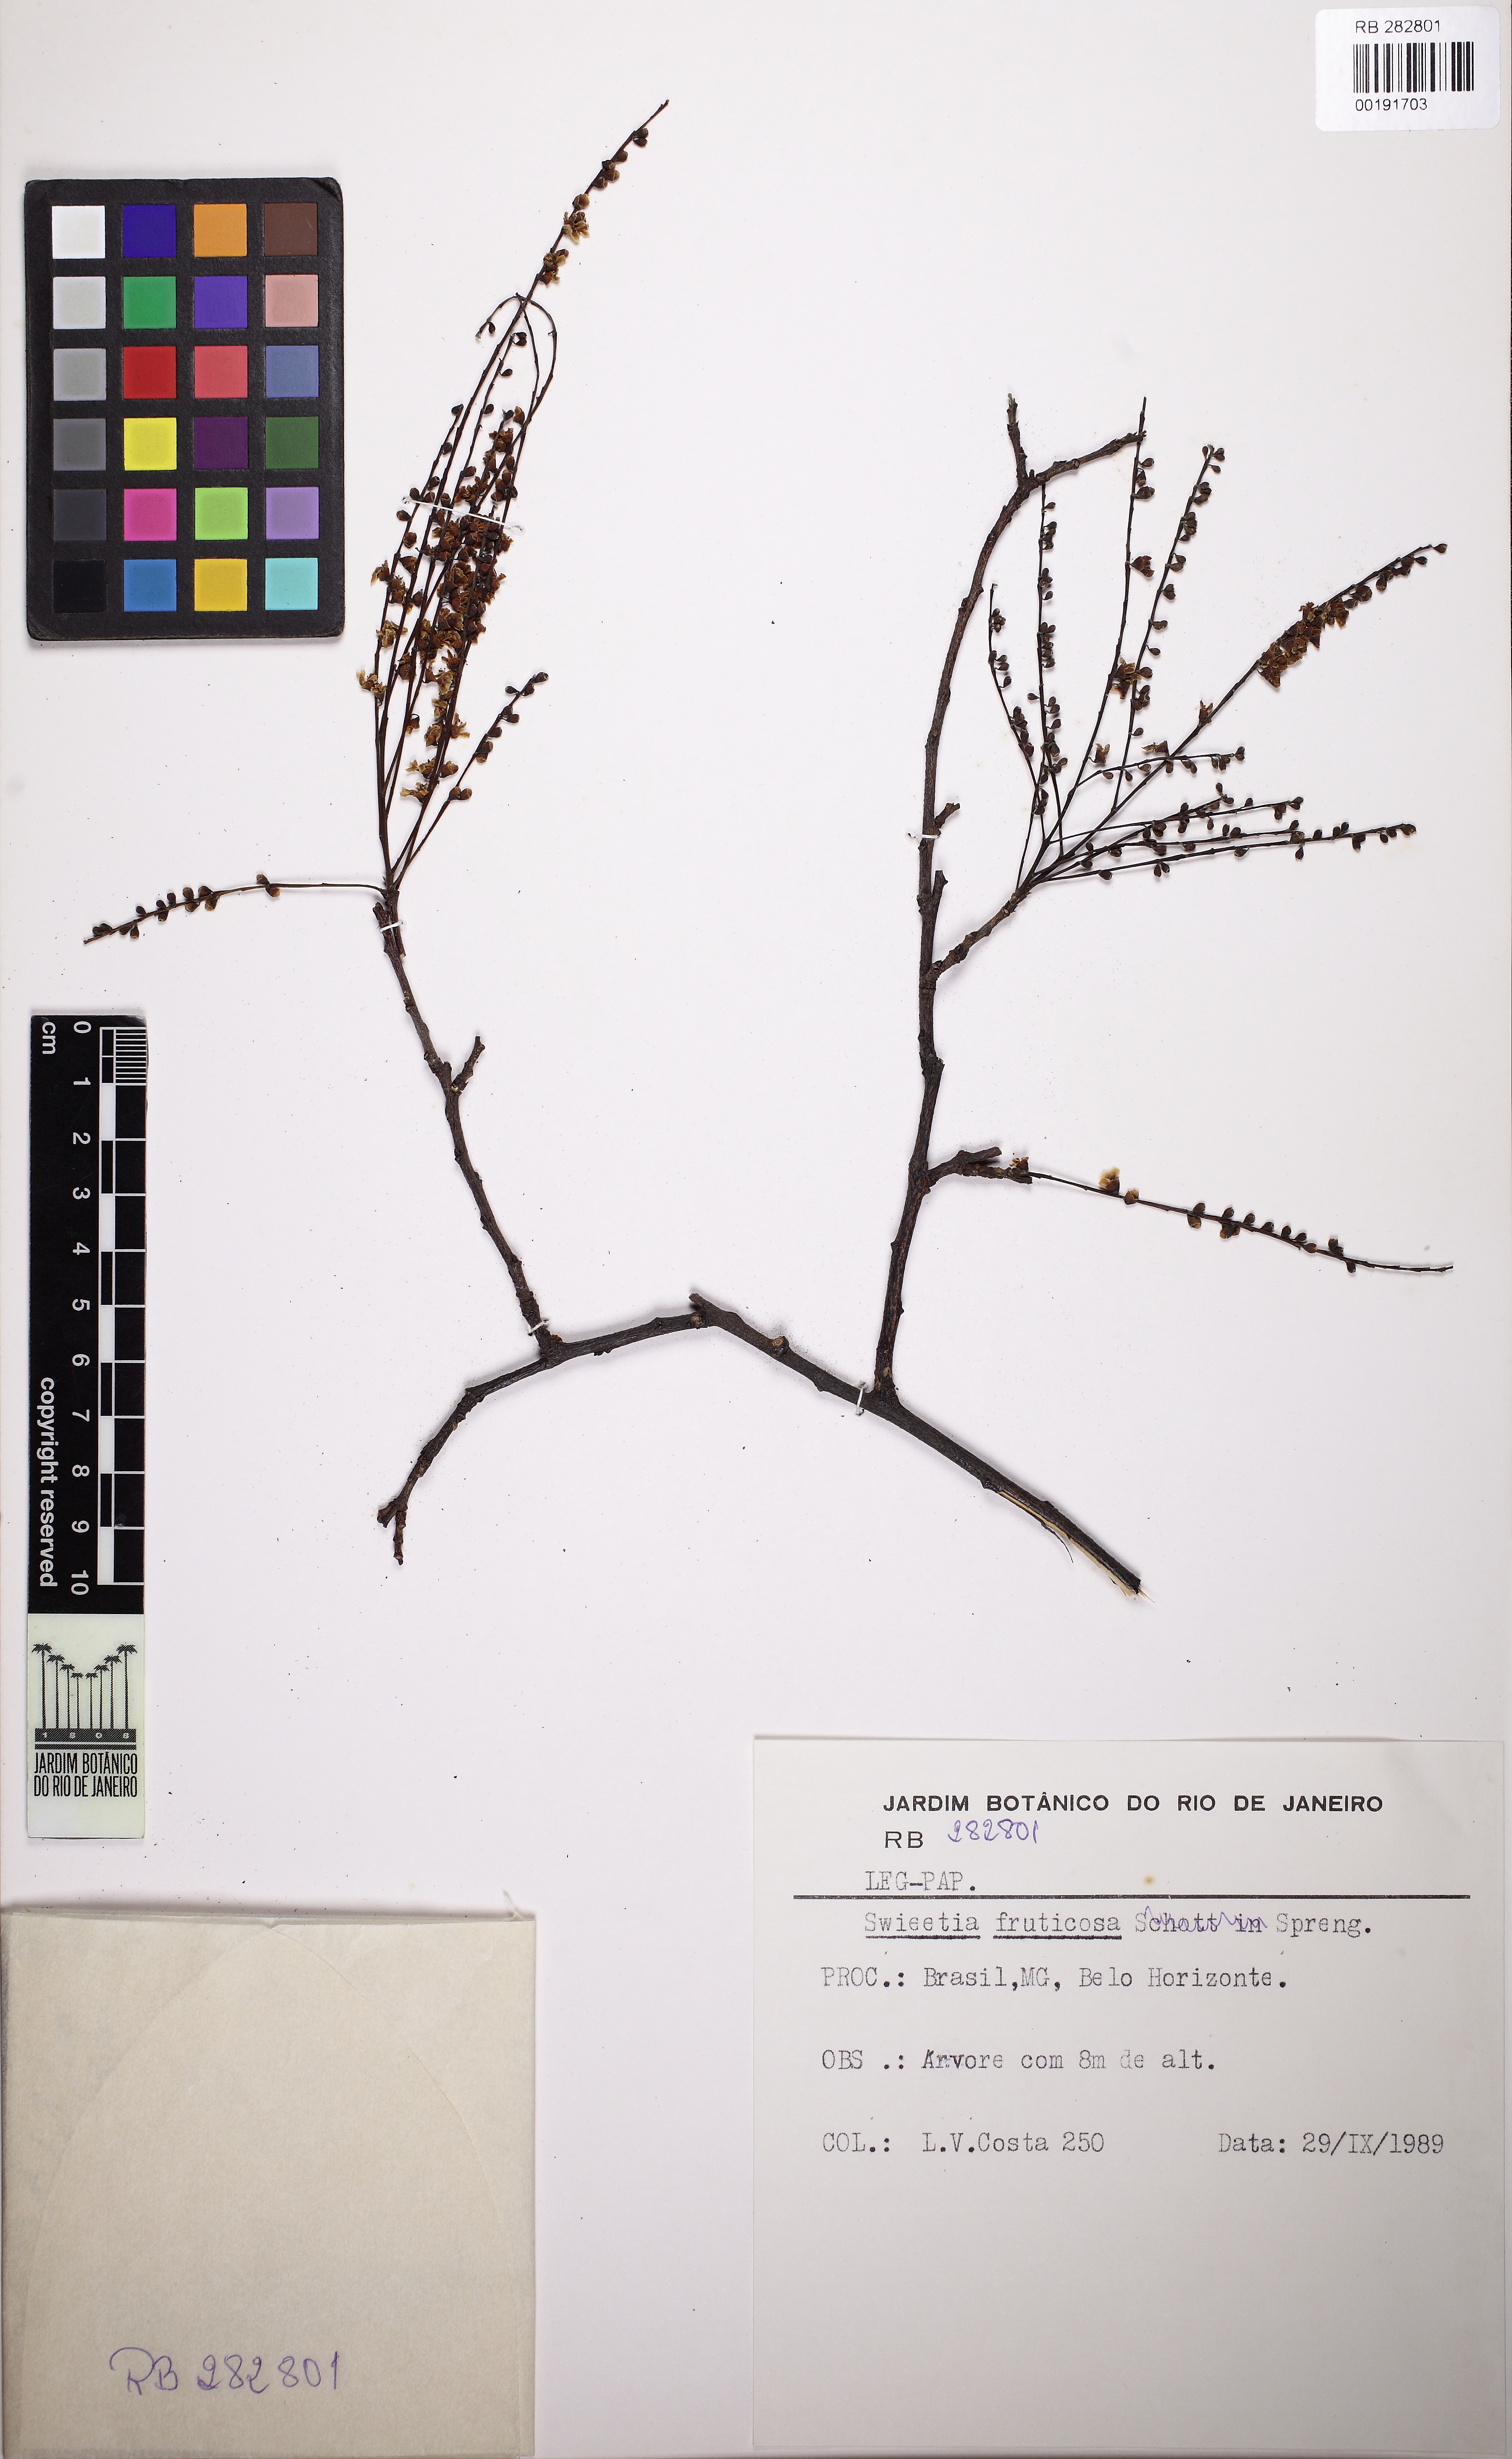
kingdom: Plantae
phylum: Tracheophyta
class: Magnoliopsida
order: Fabales
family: Fabaceae
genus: Sweetia
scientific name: Sweetia fruticosa
